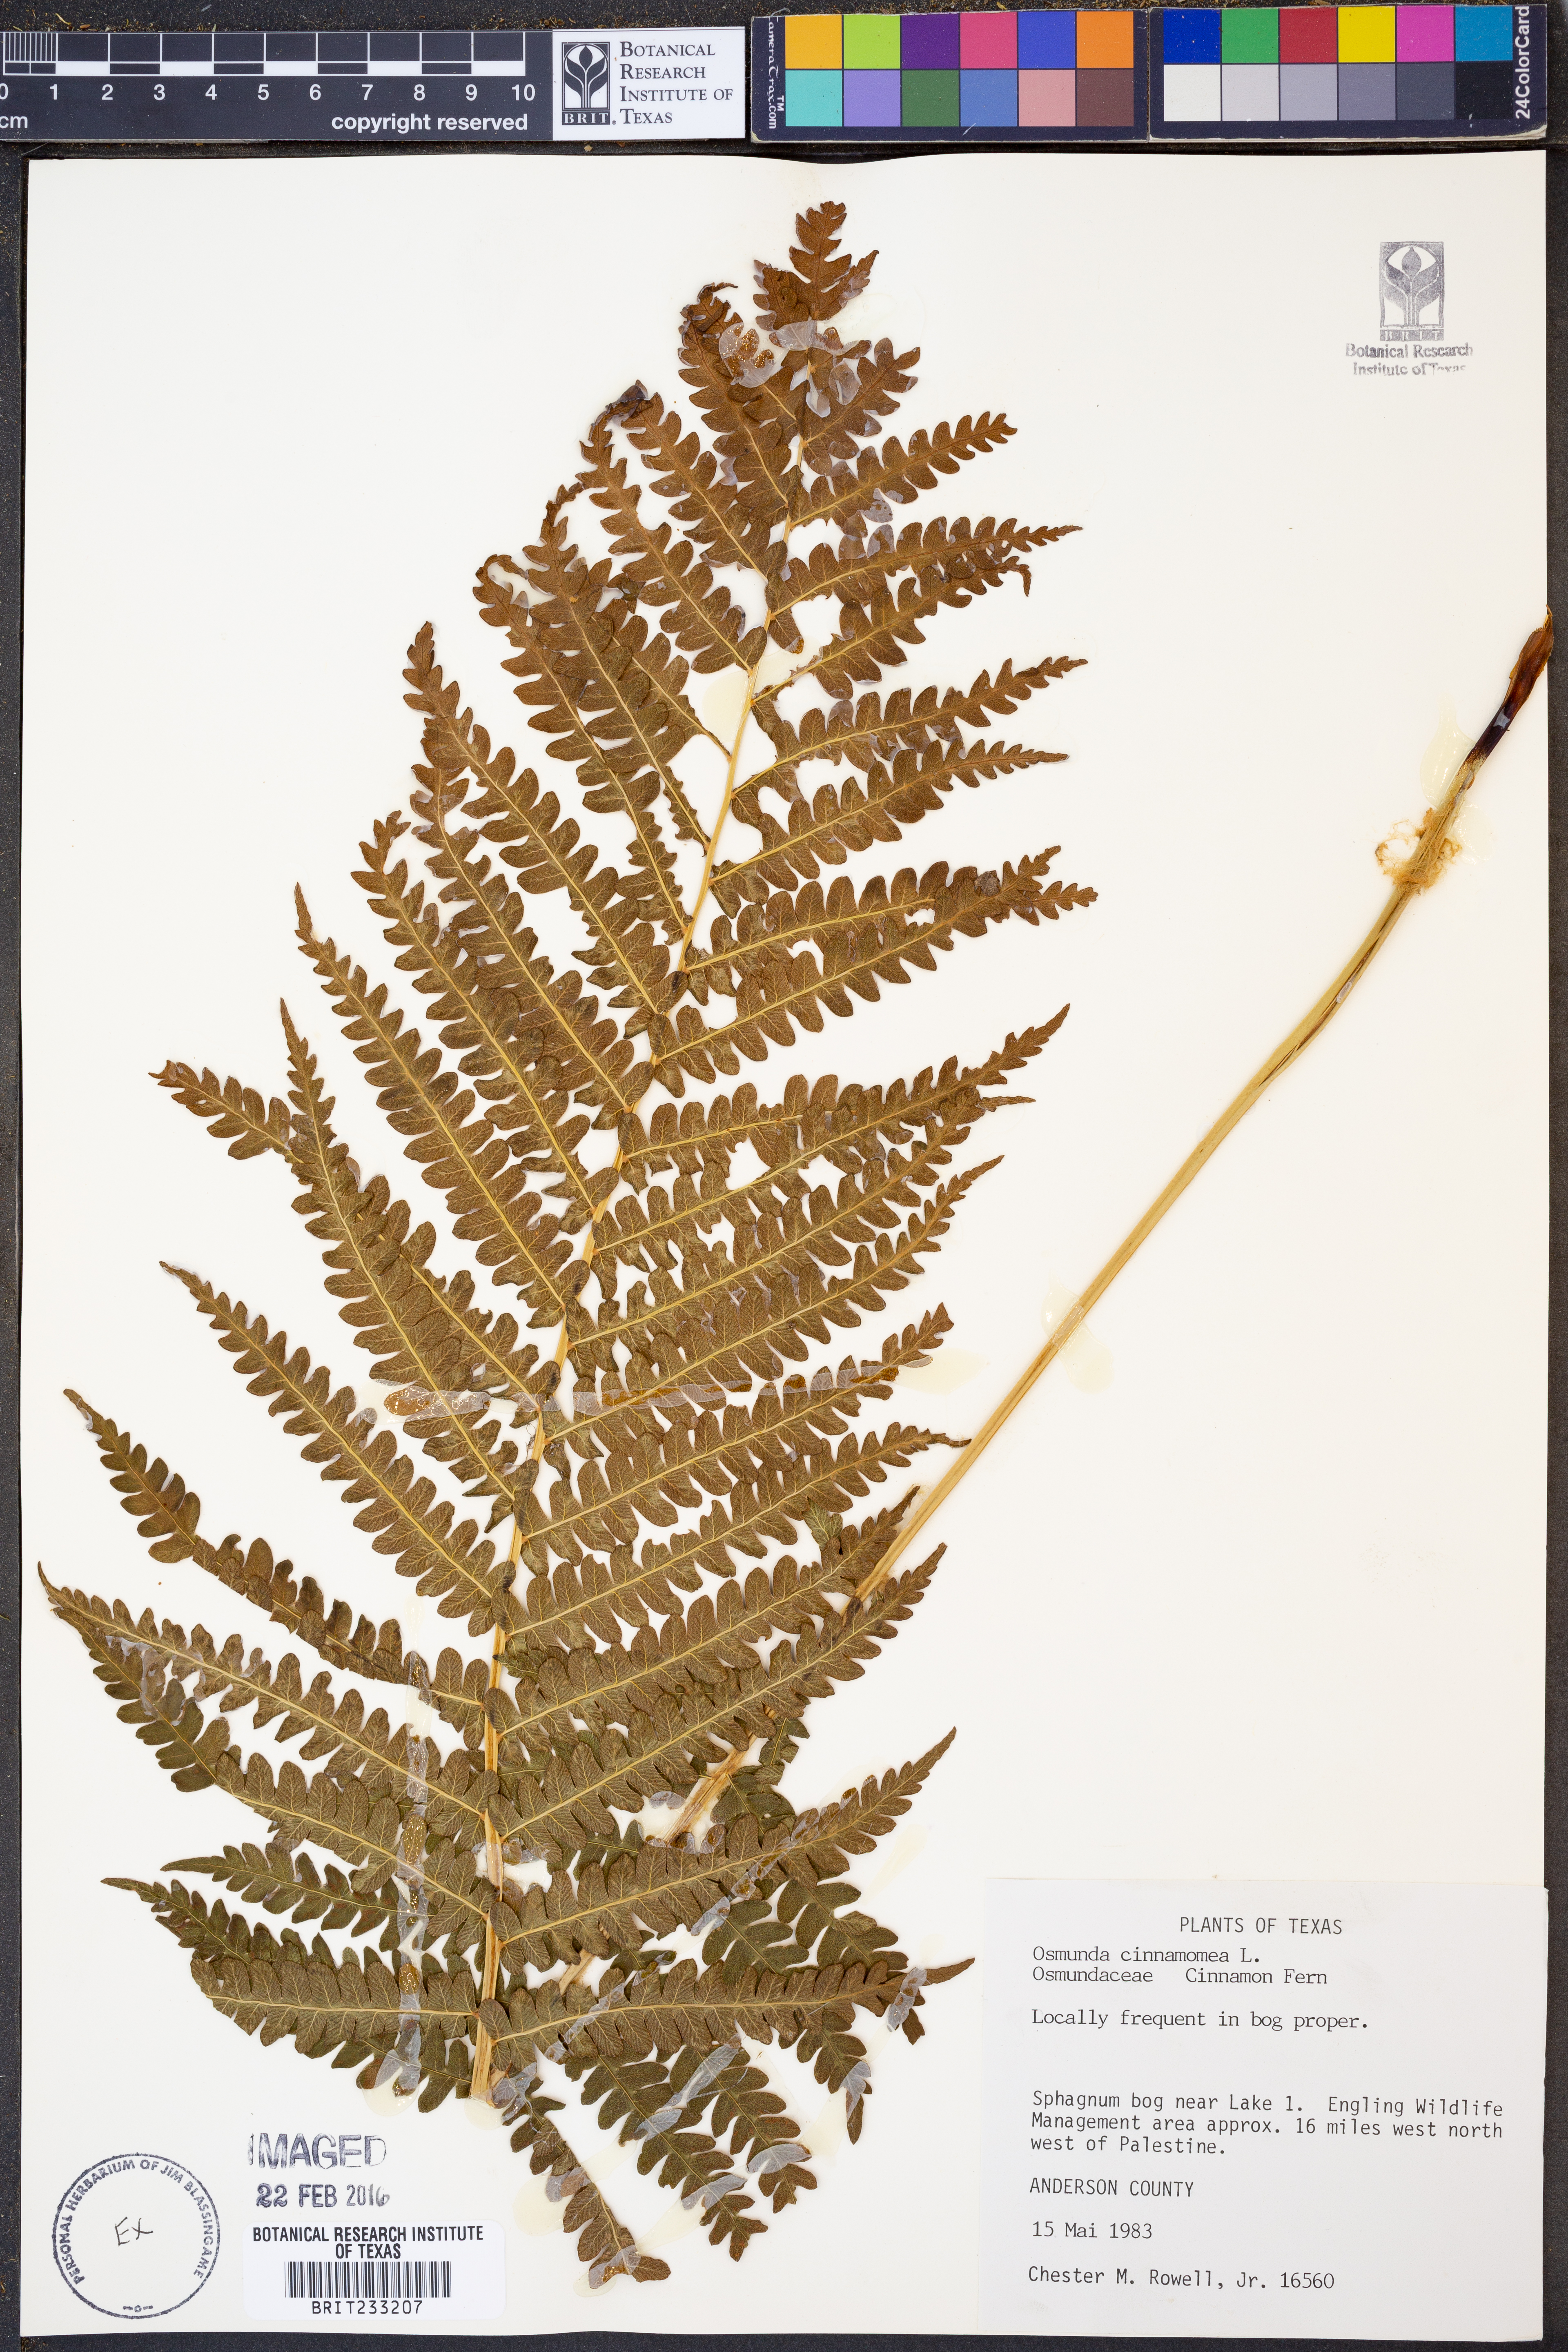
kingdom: Plantae
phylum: Tracheophyta
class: Polypodiopsida
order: Osmundales
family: Osmundaceae
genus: Osmundastrum
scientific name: Osmundastrum cinnamomeum
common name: Cinnamon fern
